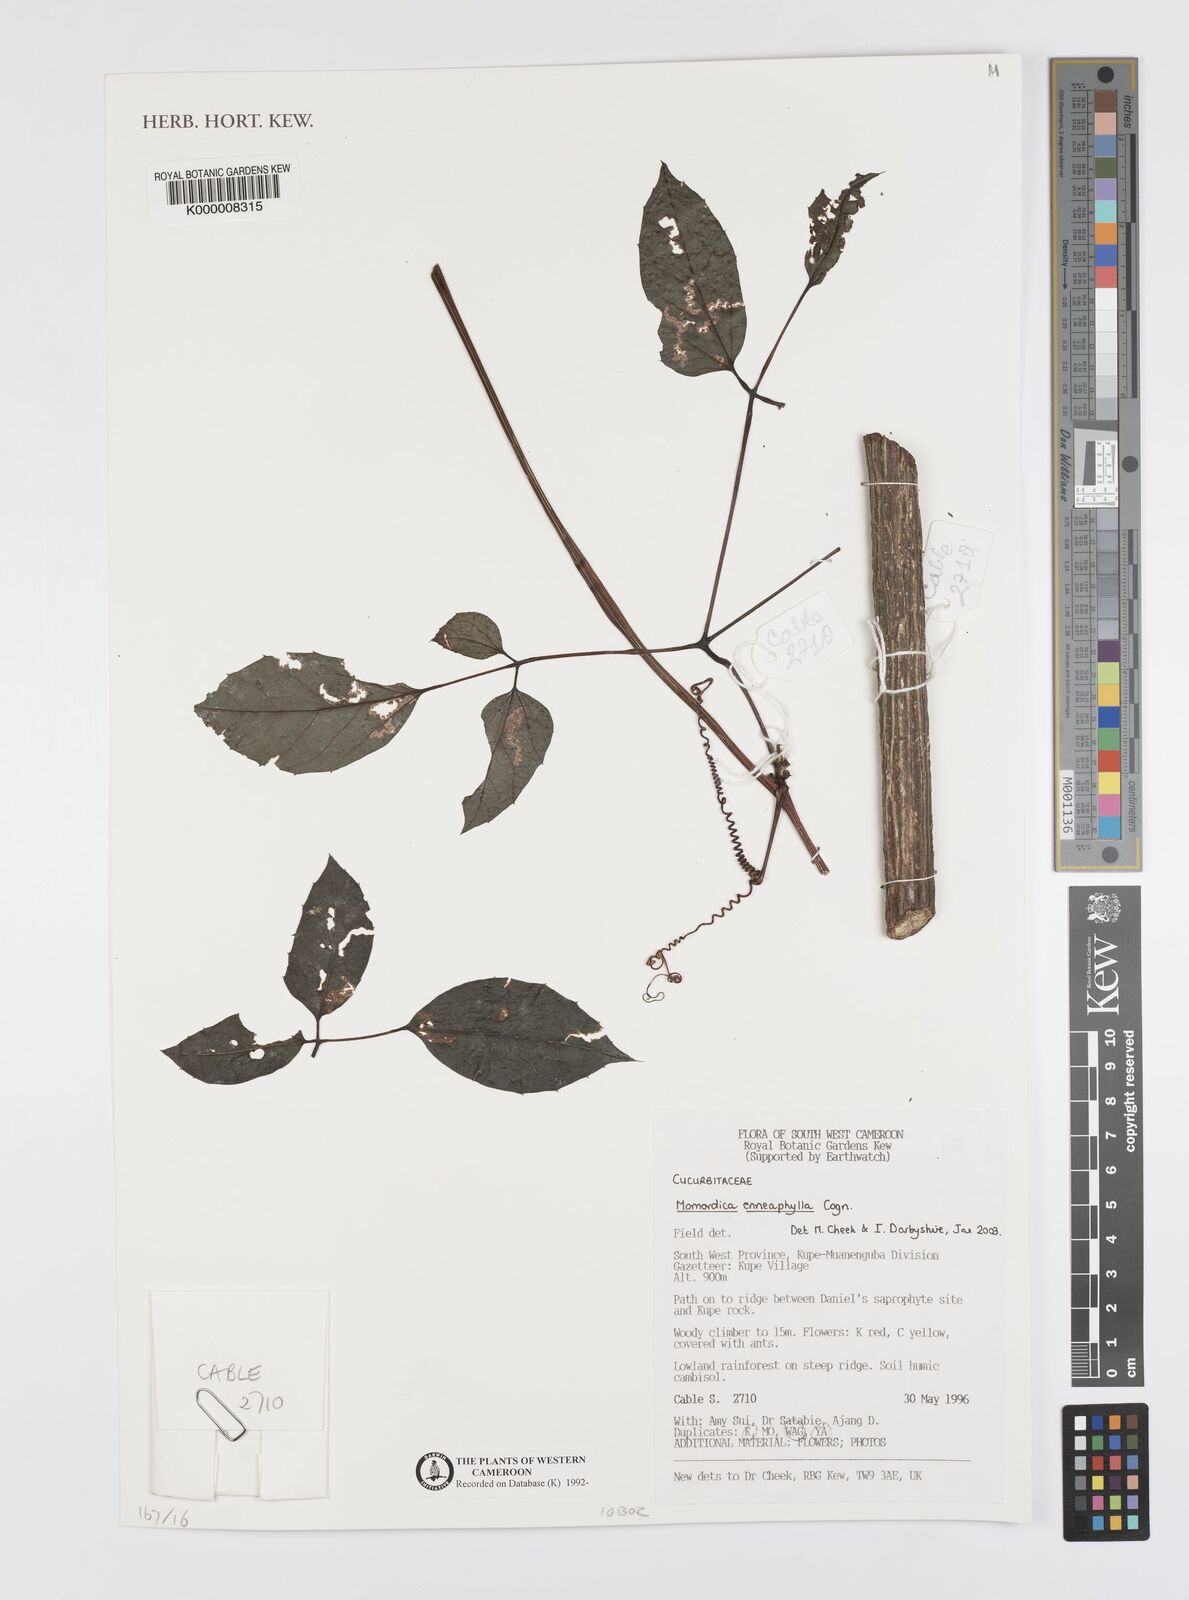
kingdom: Plantae
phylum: Tracheophyta
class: Magnoliopsida
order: Cucurbitales
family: Cucurbitaceae
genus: Momordica
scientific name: Momordica enneaphylla
